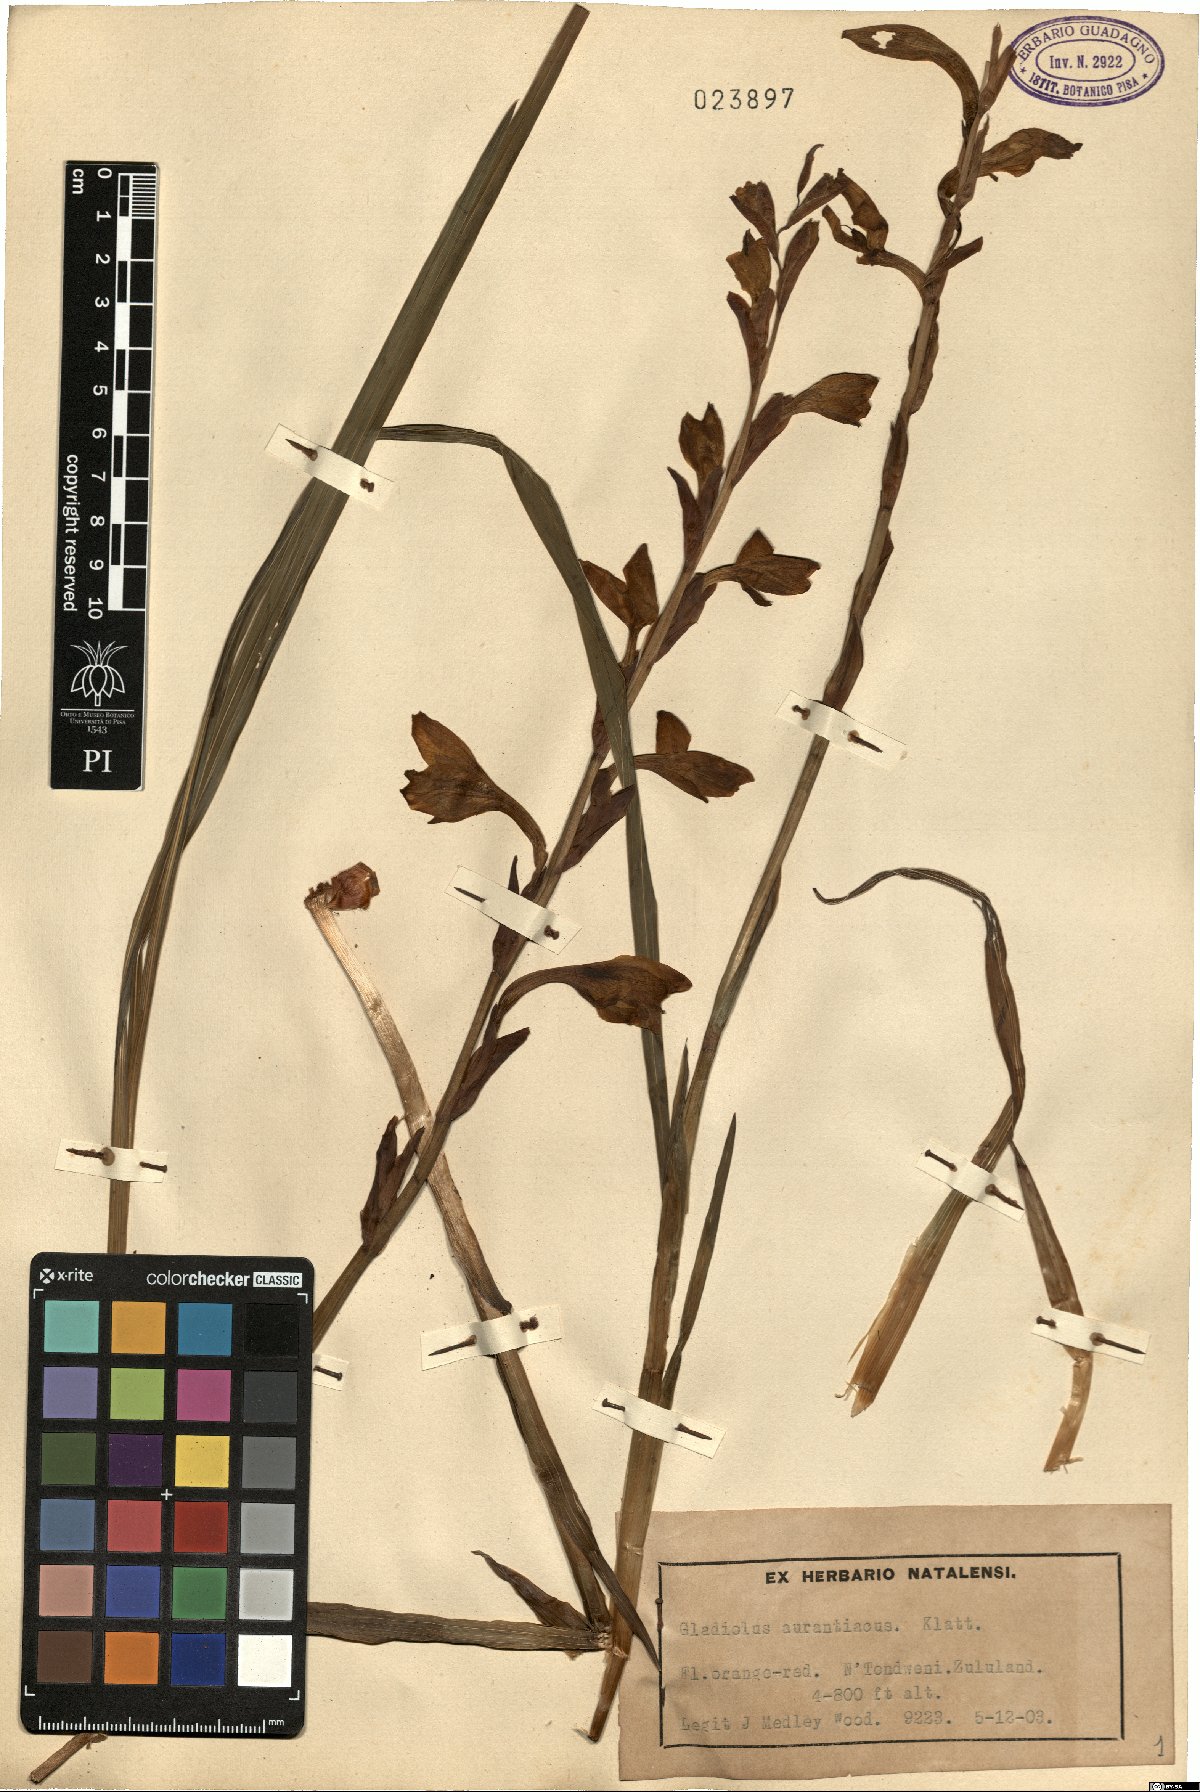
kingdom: Plantae
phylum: Tracheophyta
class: Liliopsida
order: Asparagales
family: Iridaceae
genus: Gladiolus
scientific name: Gladiolus aurantiacus
